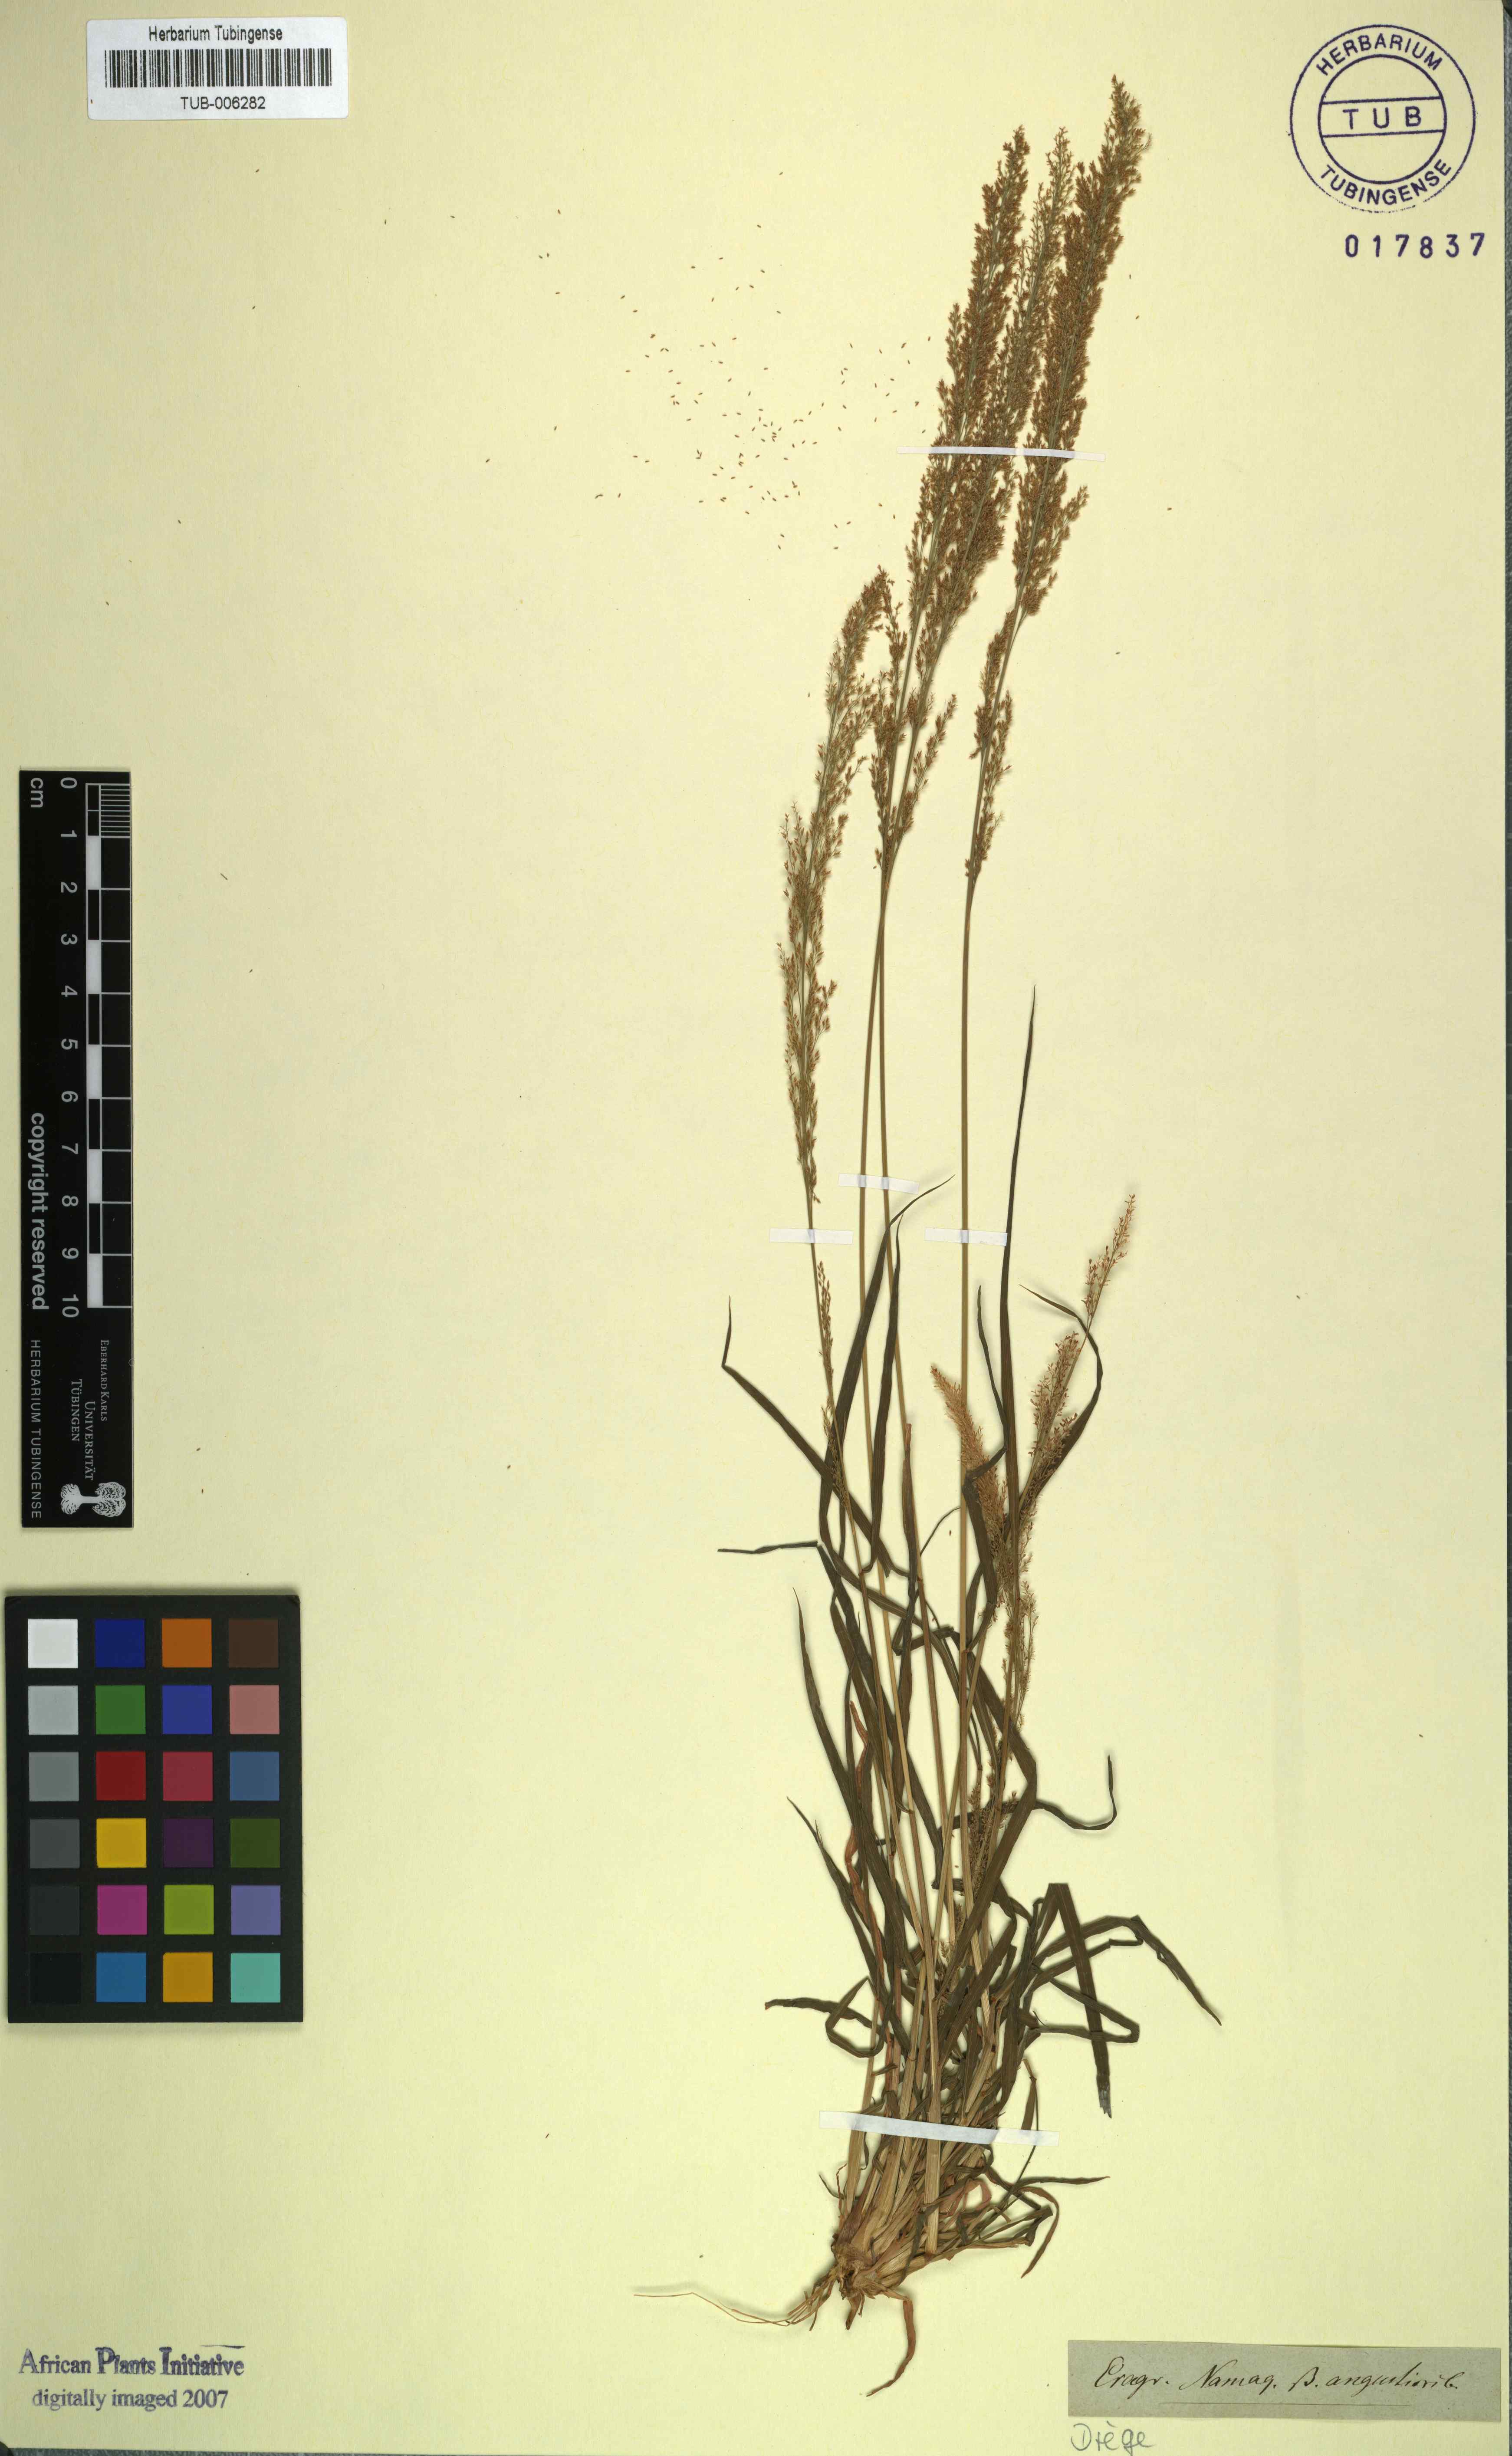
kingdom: Plantae
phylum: Tracheophyta
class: Liliopsida
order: Poales
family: Poaceae
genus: Eragrostis
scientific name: Eragrostis interrupta
